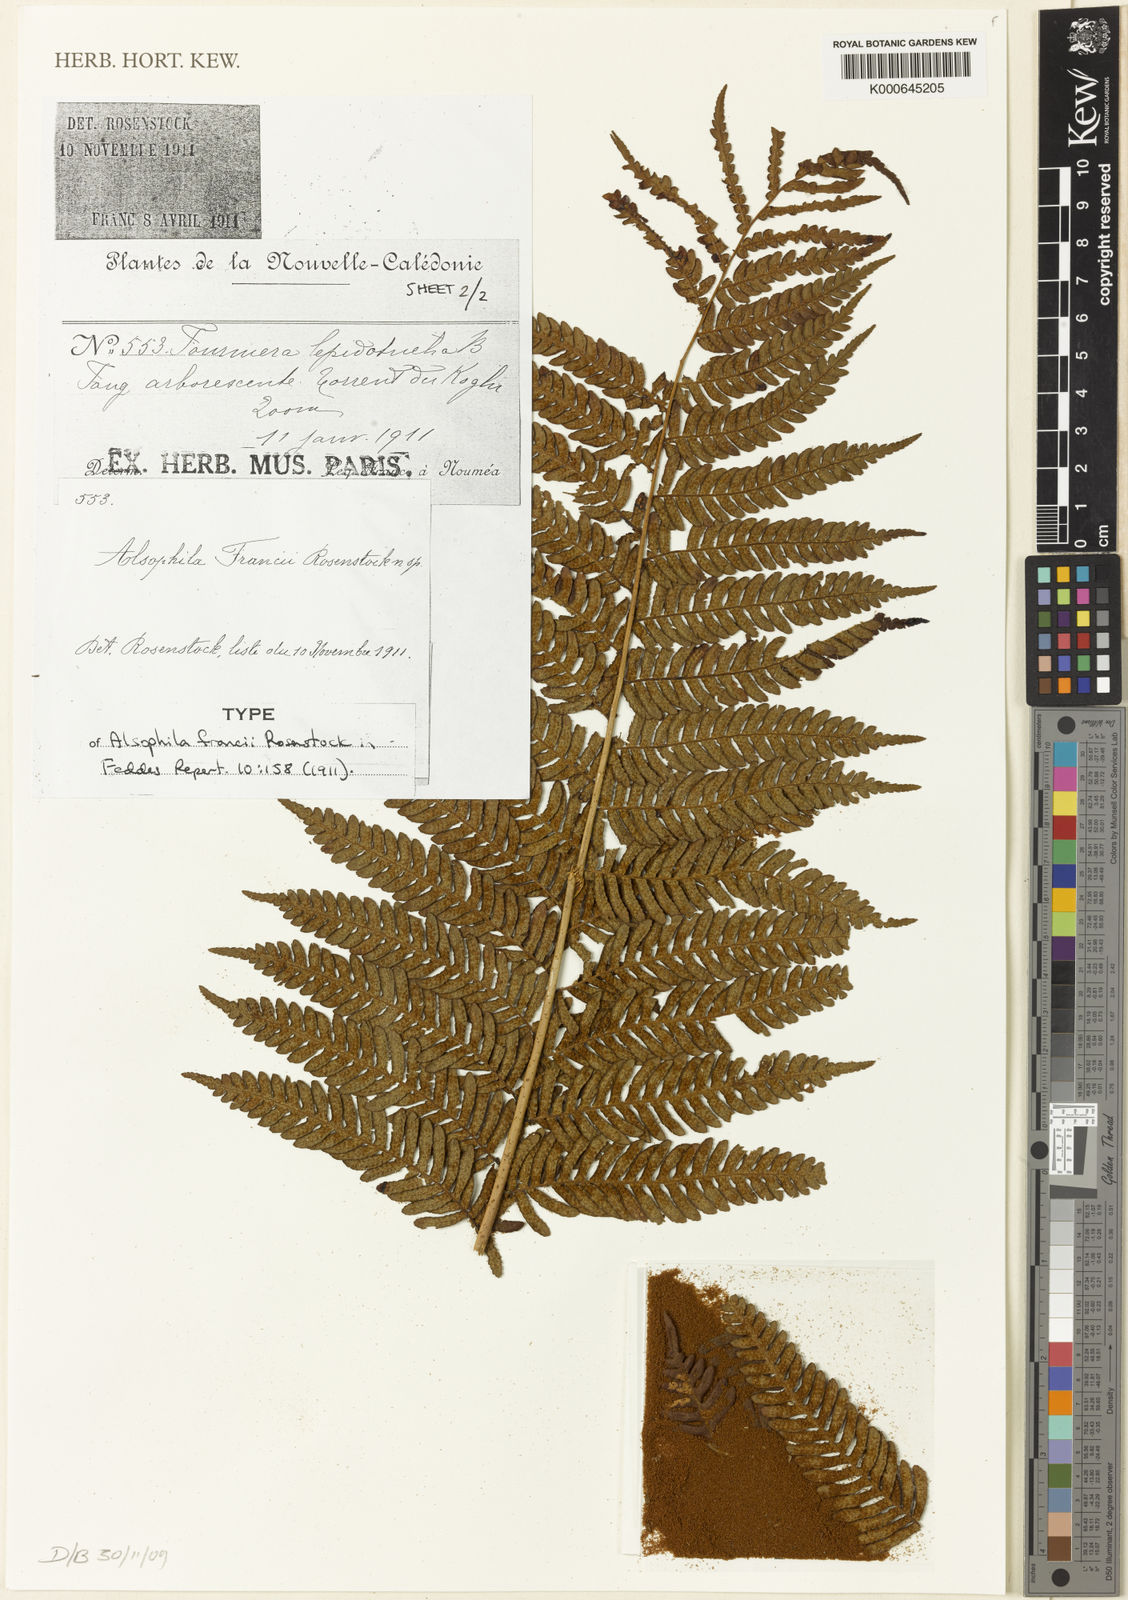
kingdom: Plantae
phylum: Tracheophyta
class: Polypodiopsida
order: Cyatheales
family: Cyatheaceae
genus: Sphaeropteris
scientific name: Sphaeropteris intermedia
